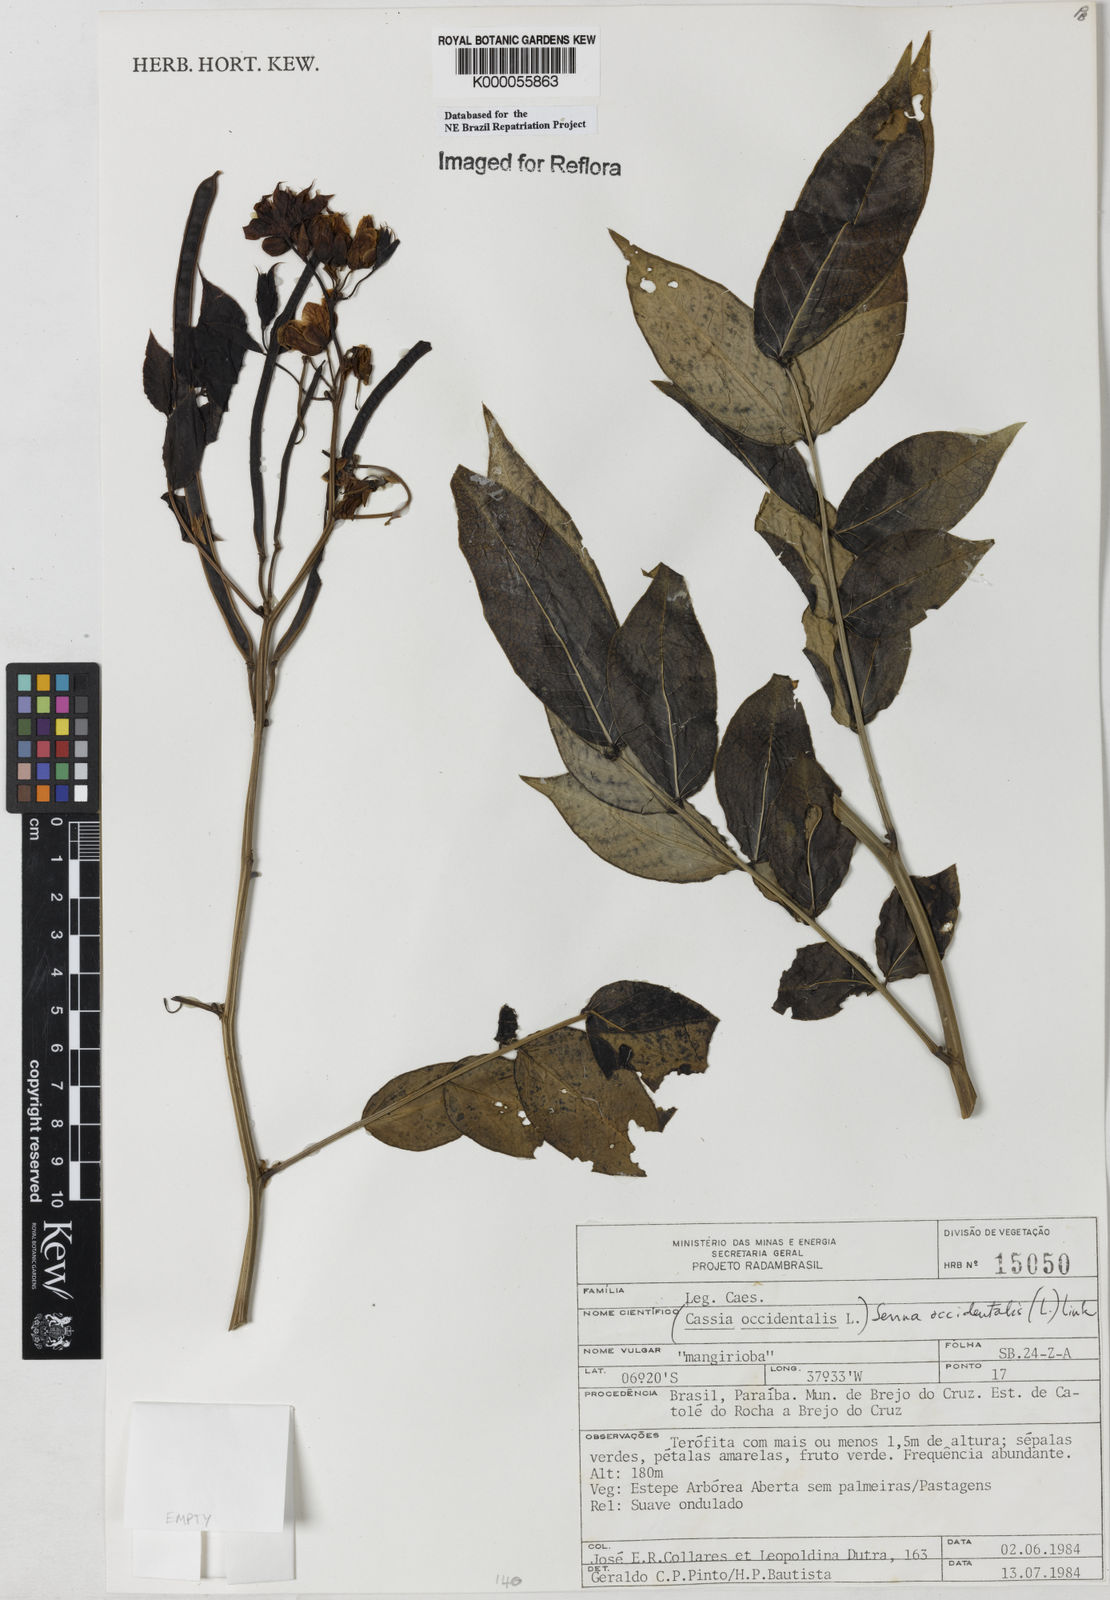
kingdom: Plantae
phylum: Tracheophyta
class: Magnoliopsida
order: Fabales
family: Fabaceae
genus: Senna
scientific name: Senna occidentalis
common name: Septicweed
